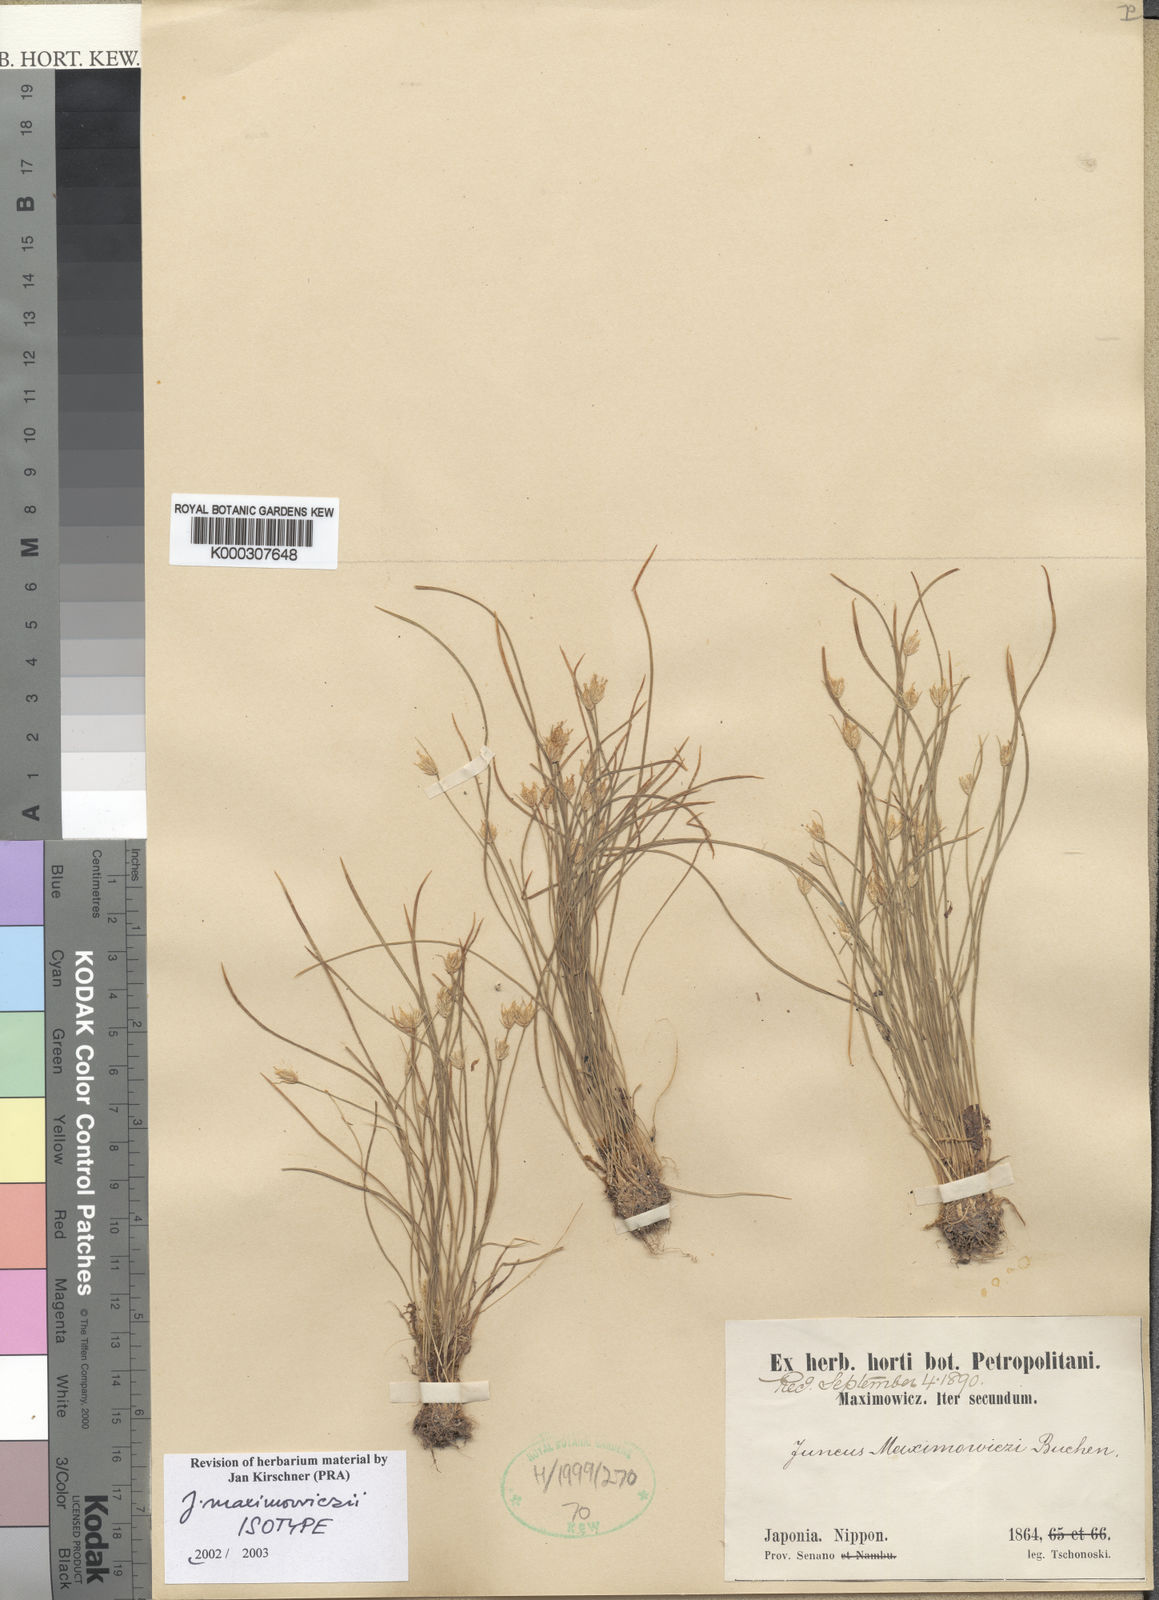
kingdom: Plantae
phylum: Tracheophyta
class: Liliopsida
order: Poales
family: Juncaceae
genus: Juncus
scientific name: Juncus maximowiczii
